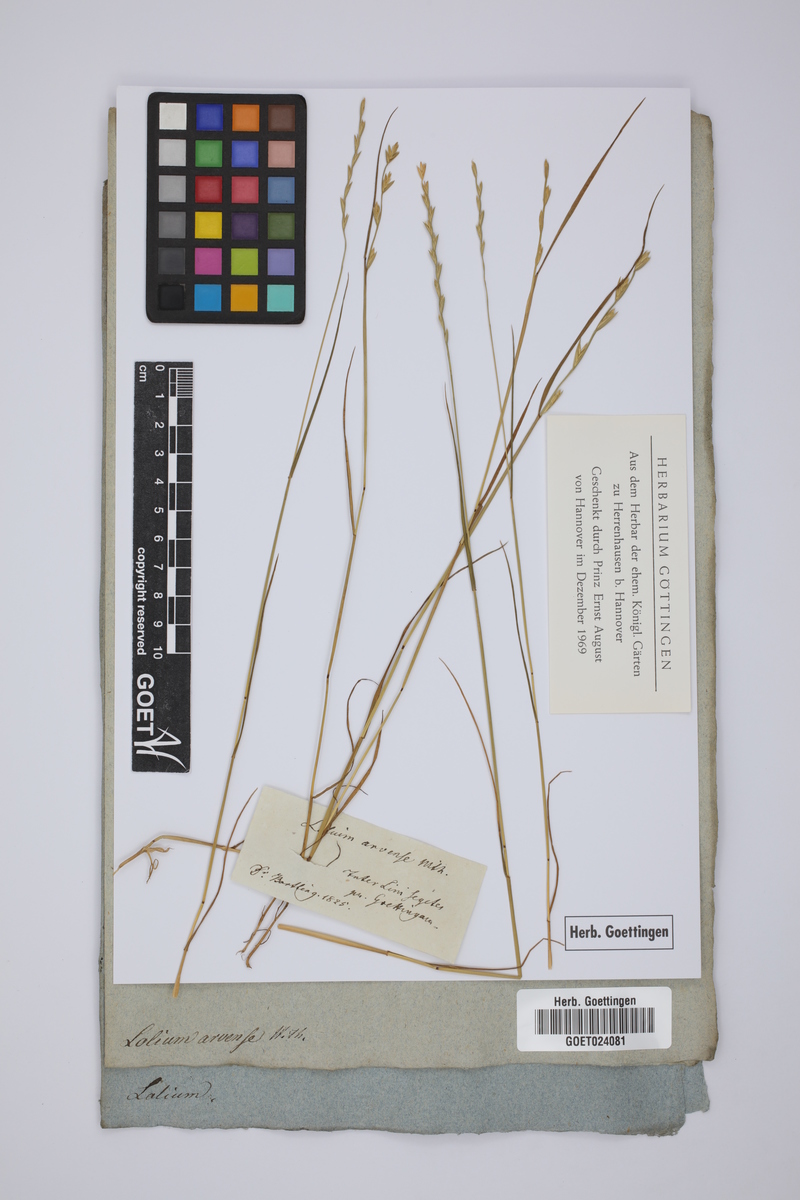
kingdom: Plantae
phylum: Tracheophyta
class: Liliopsida
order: Poales
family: Poaceae
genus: Lolium
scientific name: Lolium temulentum
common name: Darnel
